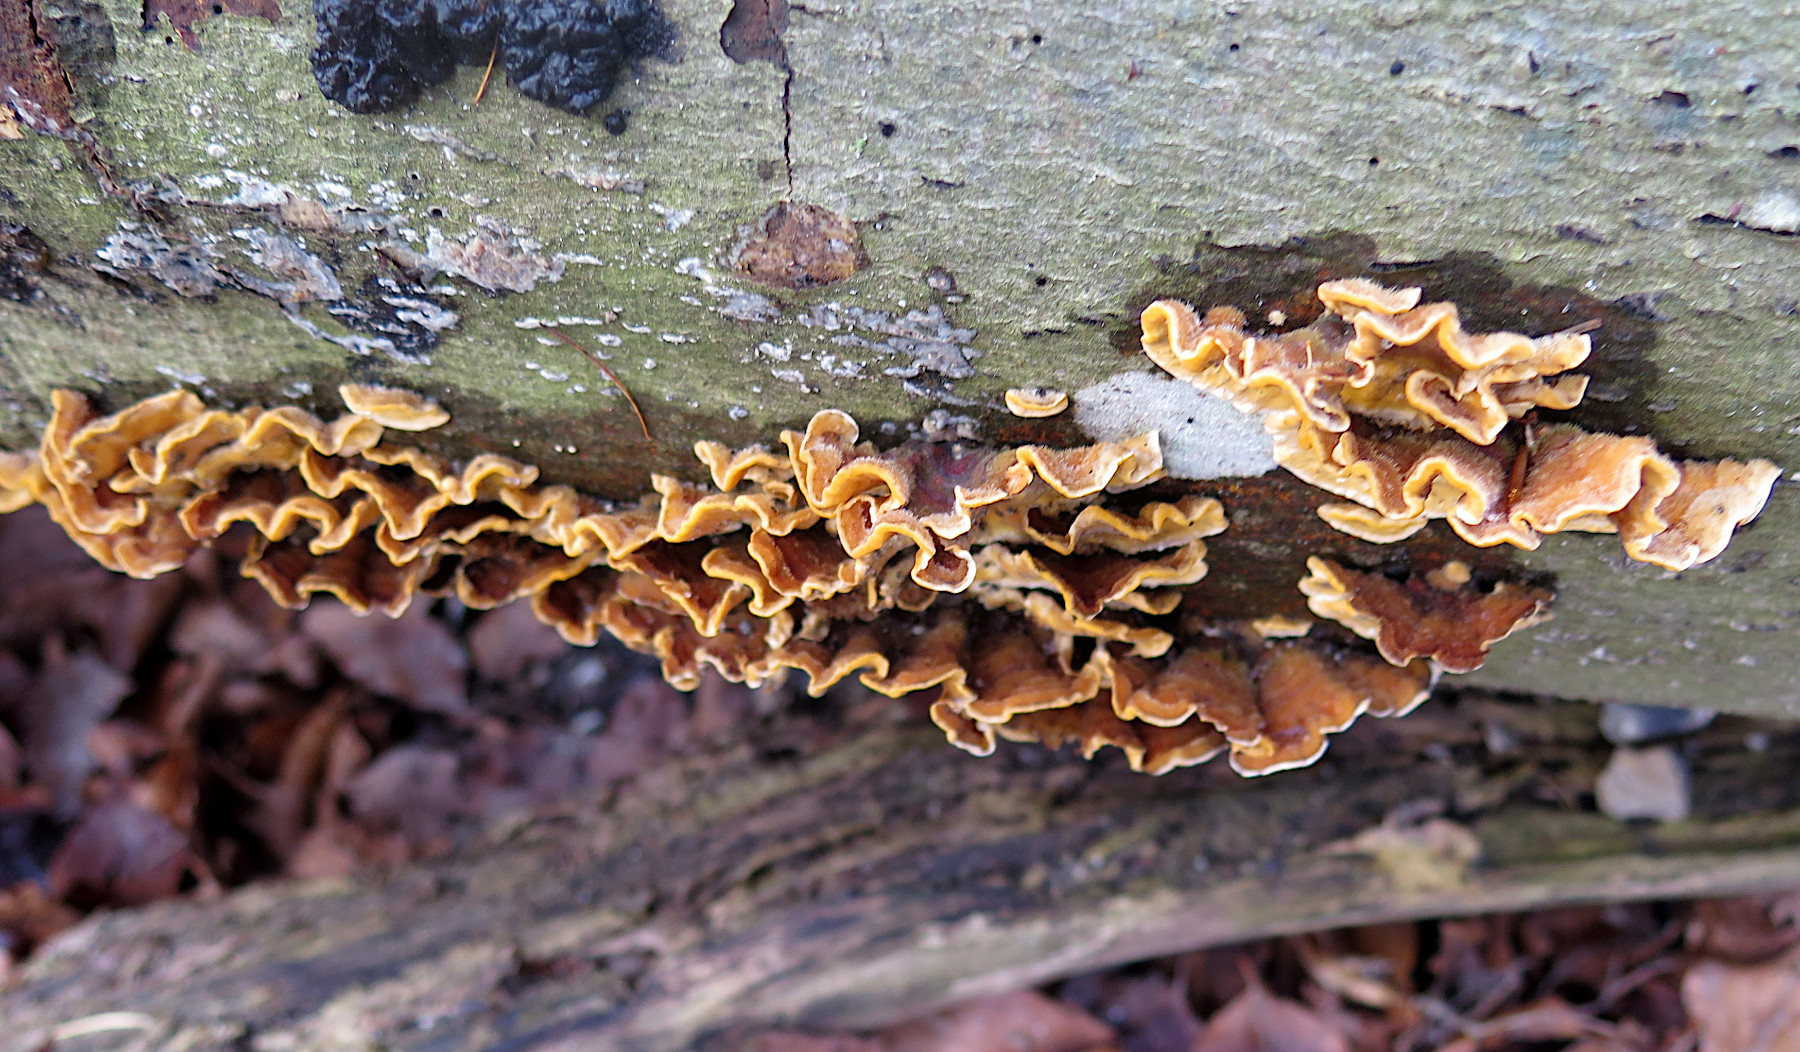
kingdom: Fungi
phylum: Basidiomycota
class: Agaricomycetes
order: Russulales
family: Stereaceae
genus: Stereum
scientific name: Stereum hirsutum
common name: håret lædersvamp
